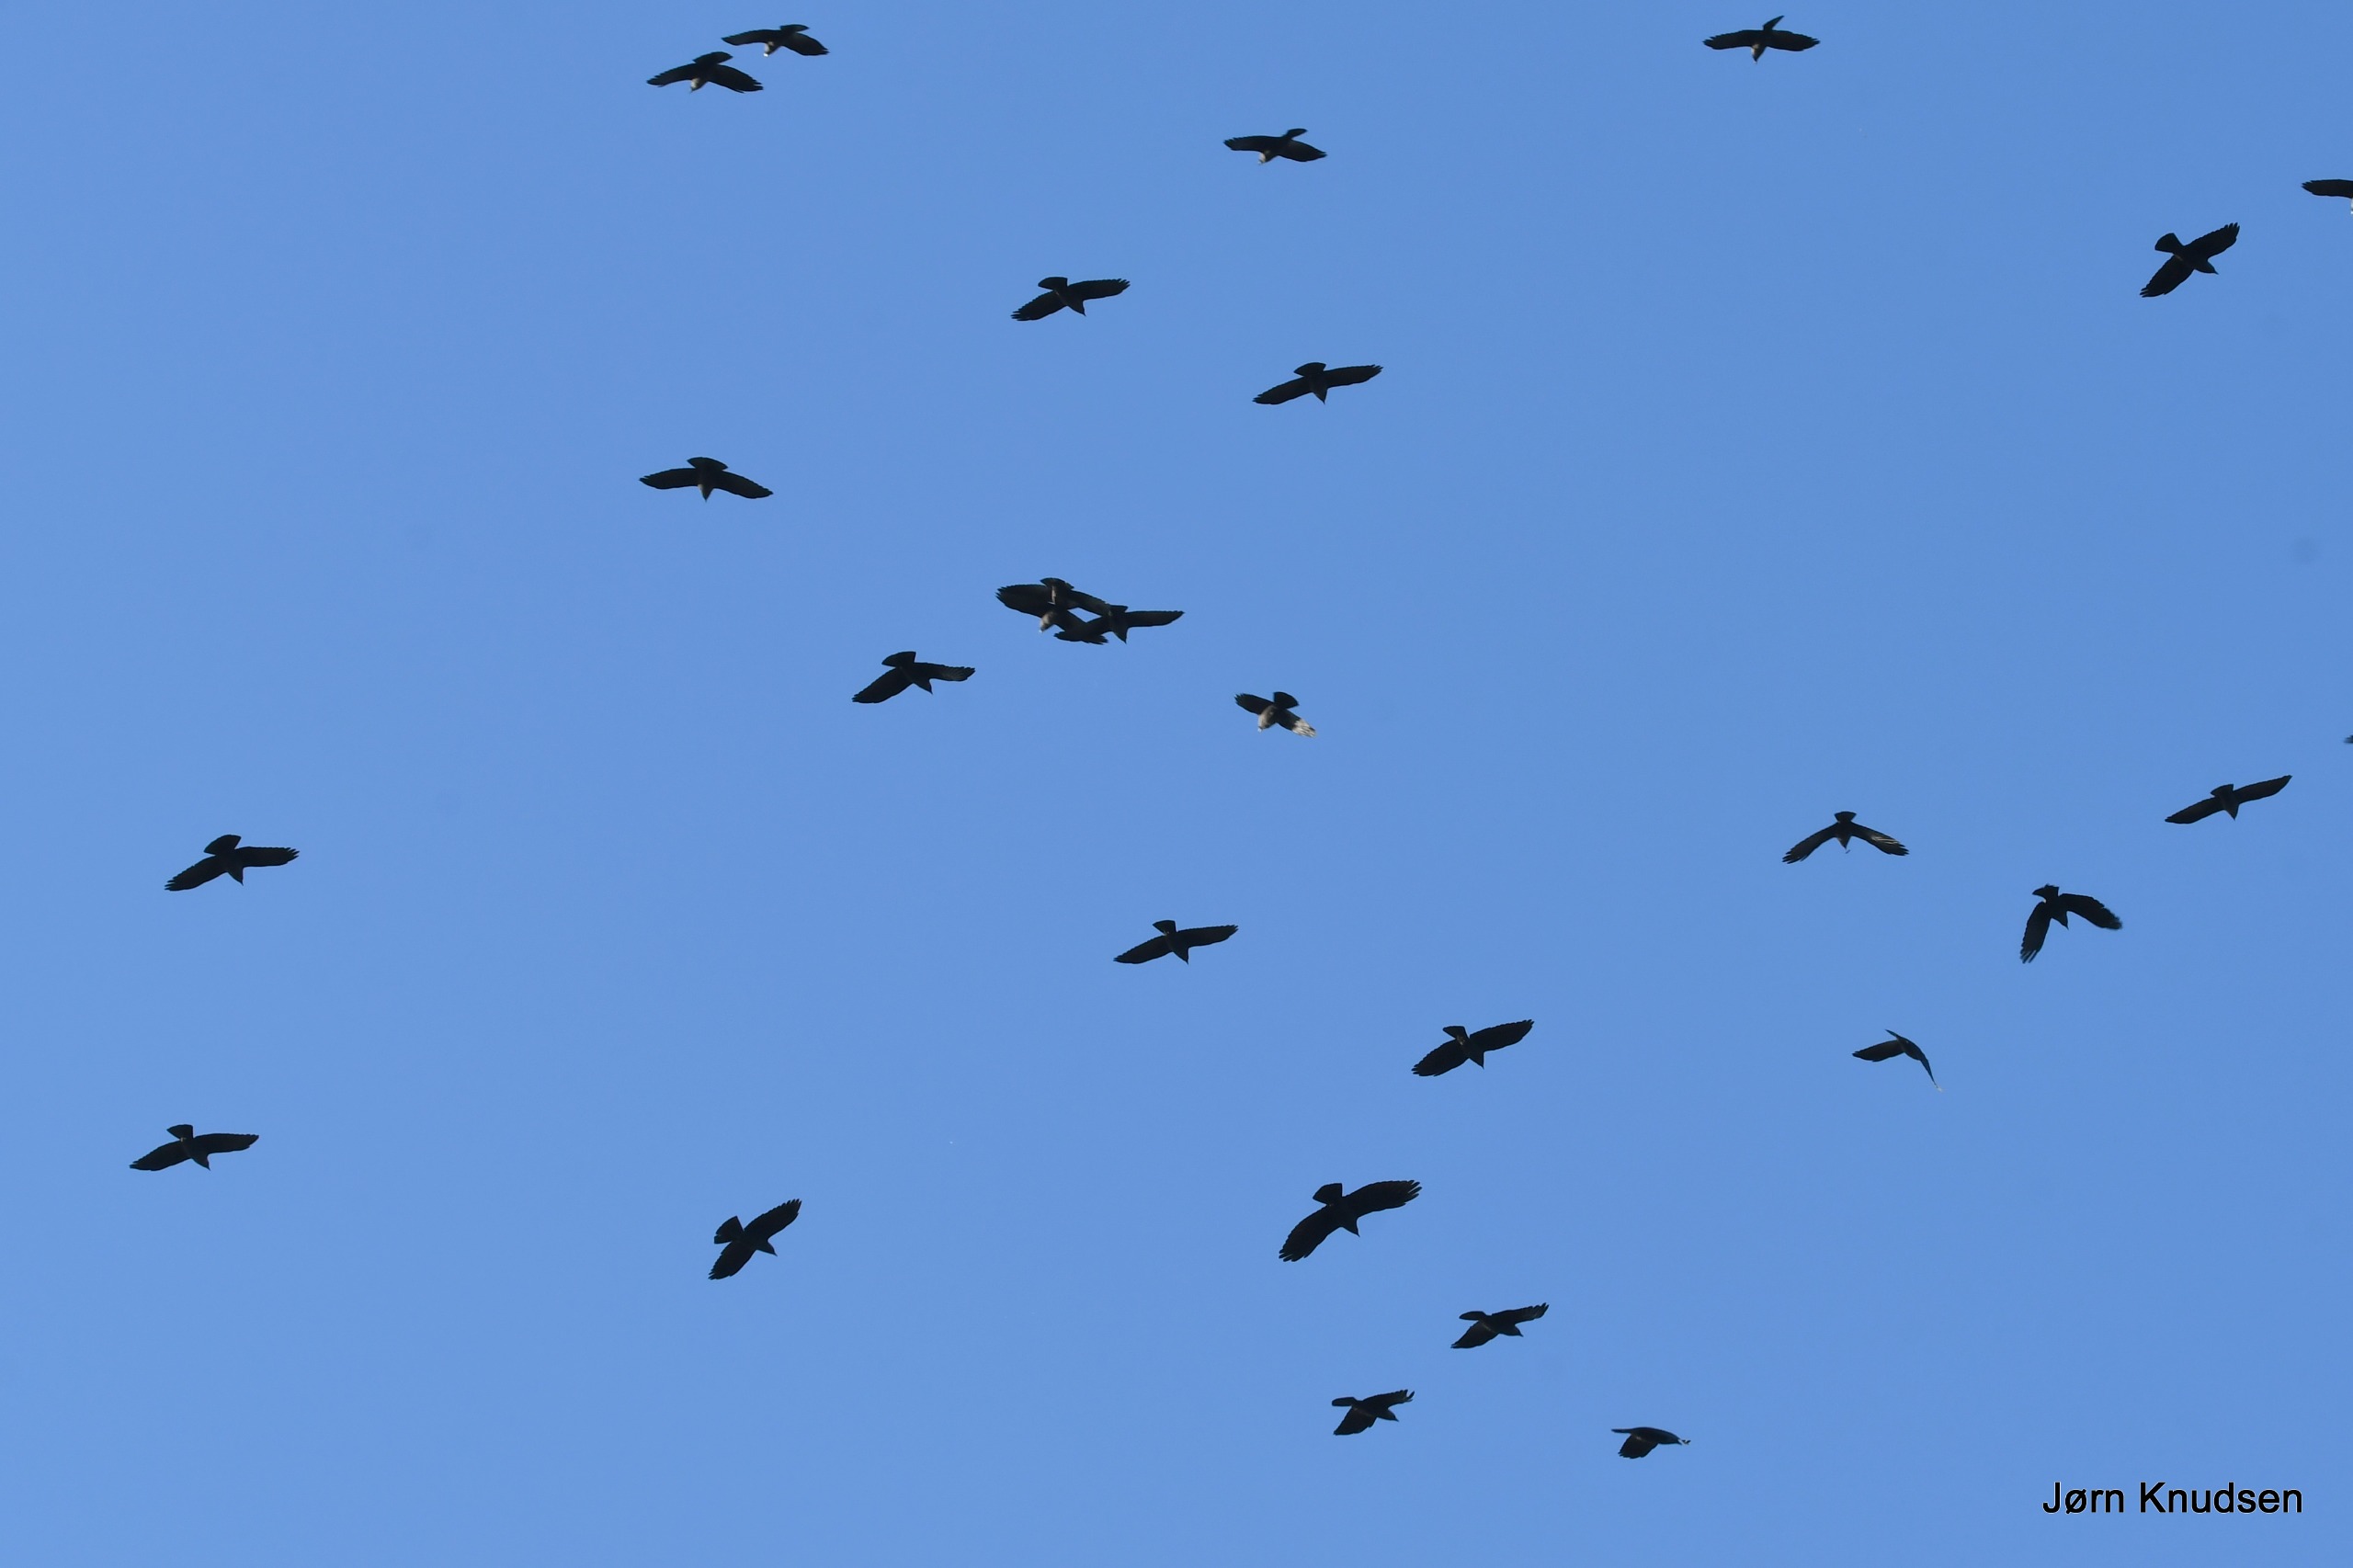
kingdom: Animalia
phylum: Chordata
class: Aves
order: Passeriformes
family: Corvidae
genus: Coloeus
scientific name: Coloeus monedula
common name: Allike
